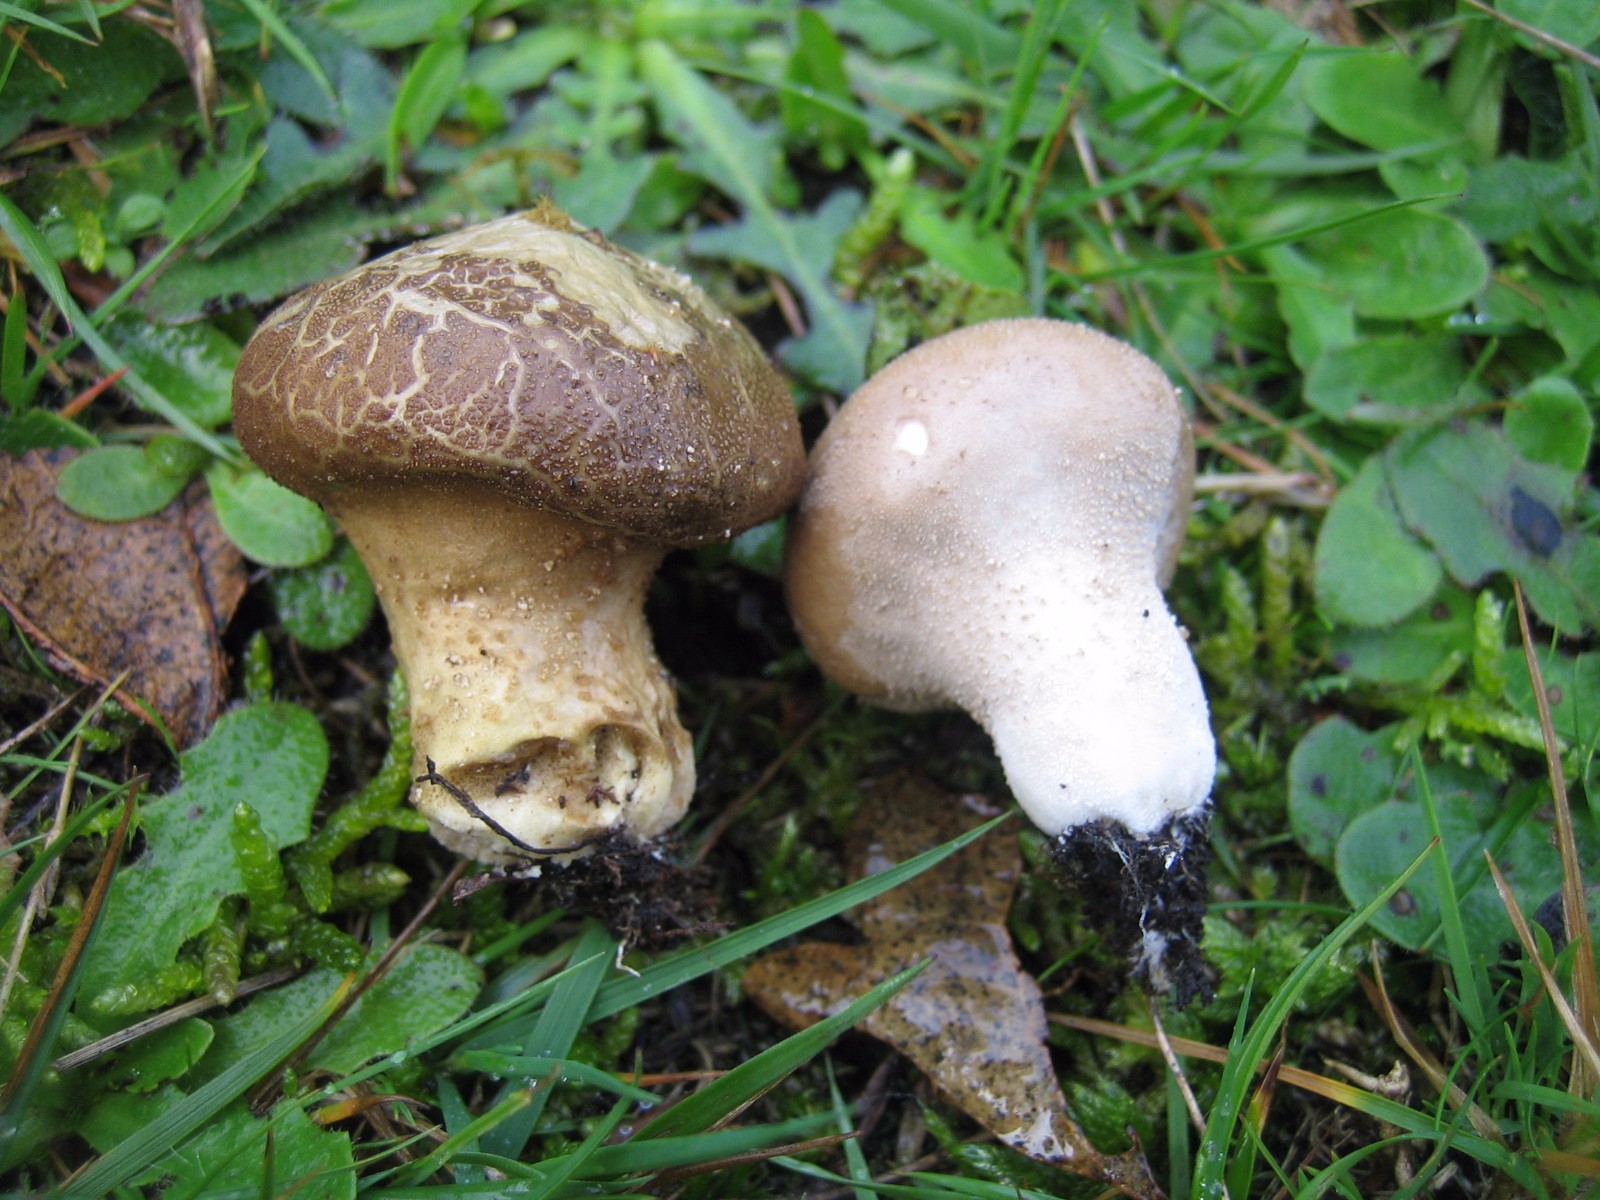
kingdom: Fungi
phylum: Basidiomycota
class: Agaricomycetes
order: Agaricales
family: Agaricaceae
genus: Lycoperdon
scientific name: Lycoperdon
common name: støvbold
